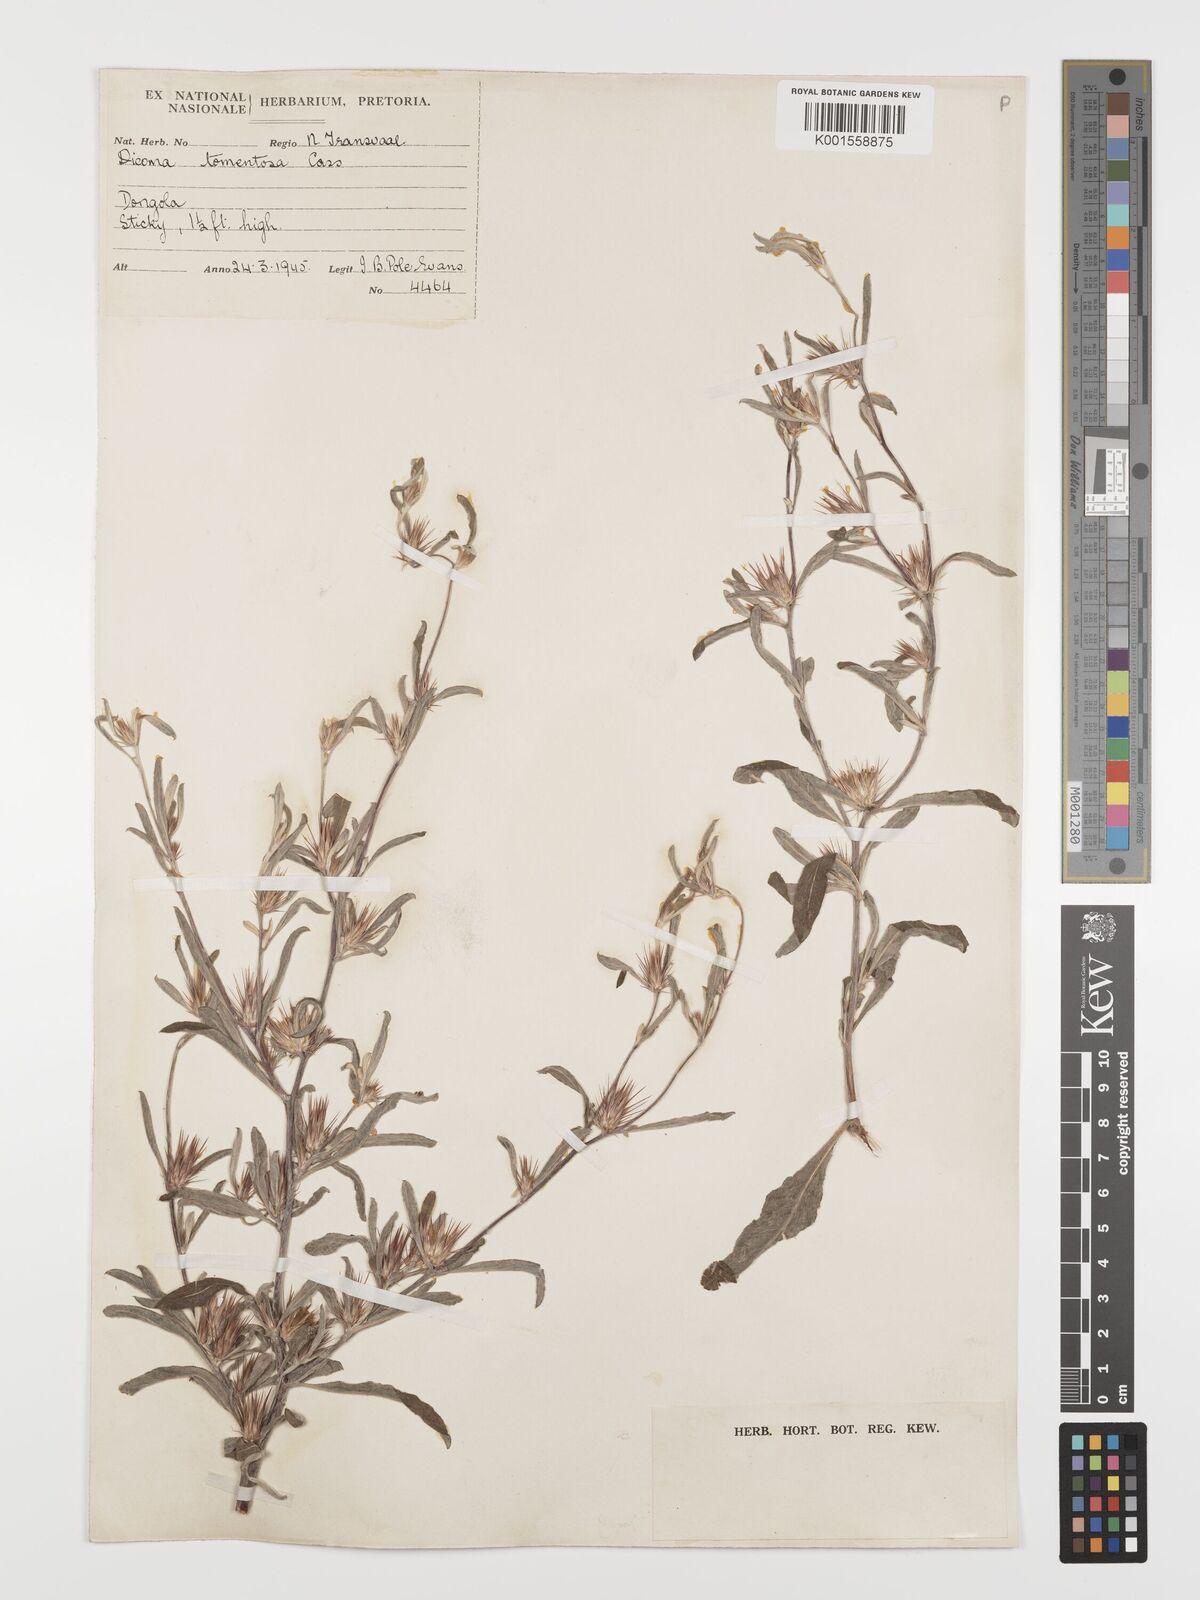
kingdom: Plantae
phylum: Tracheophyta
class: Magnoliopsida
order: Asterales
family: Asteraceae
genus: Dicoma
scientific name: Dicoma tomentosa
